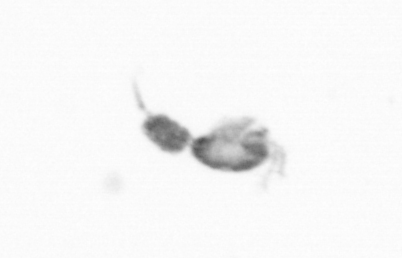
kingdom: Animalia
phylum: Arthropoda
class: Copepoda
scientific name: Copepoda
